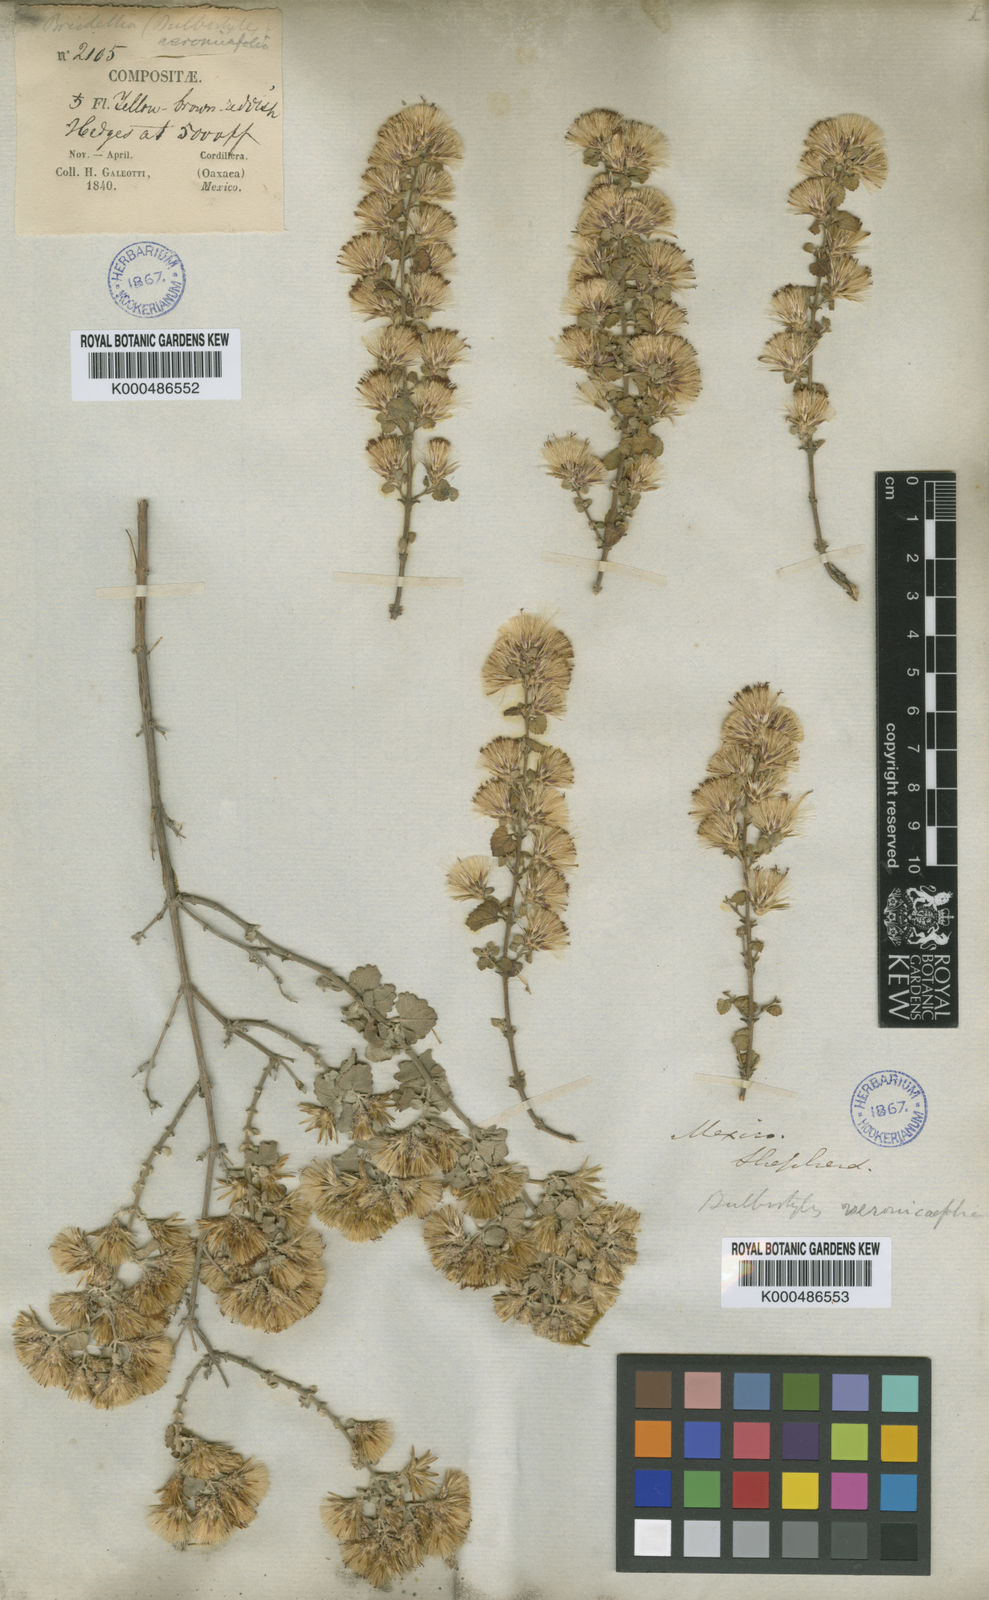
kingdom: Plantae
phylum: Tracheophyta
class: Magnoliopsida
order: Asterales
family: Asteraceae
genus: Brickellia
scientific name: Brickellia veronicifolia
